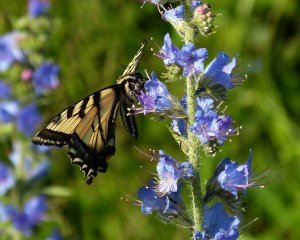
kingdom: Animalia
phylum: Arthropoda
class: Insecta
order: Lepidoptera
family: Papilionidae
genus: Pterourus
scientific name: Pterourus canadensis
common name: Canadian Tiger Swallowtail
